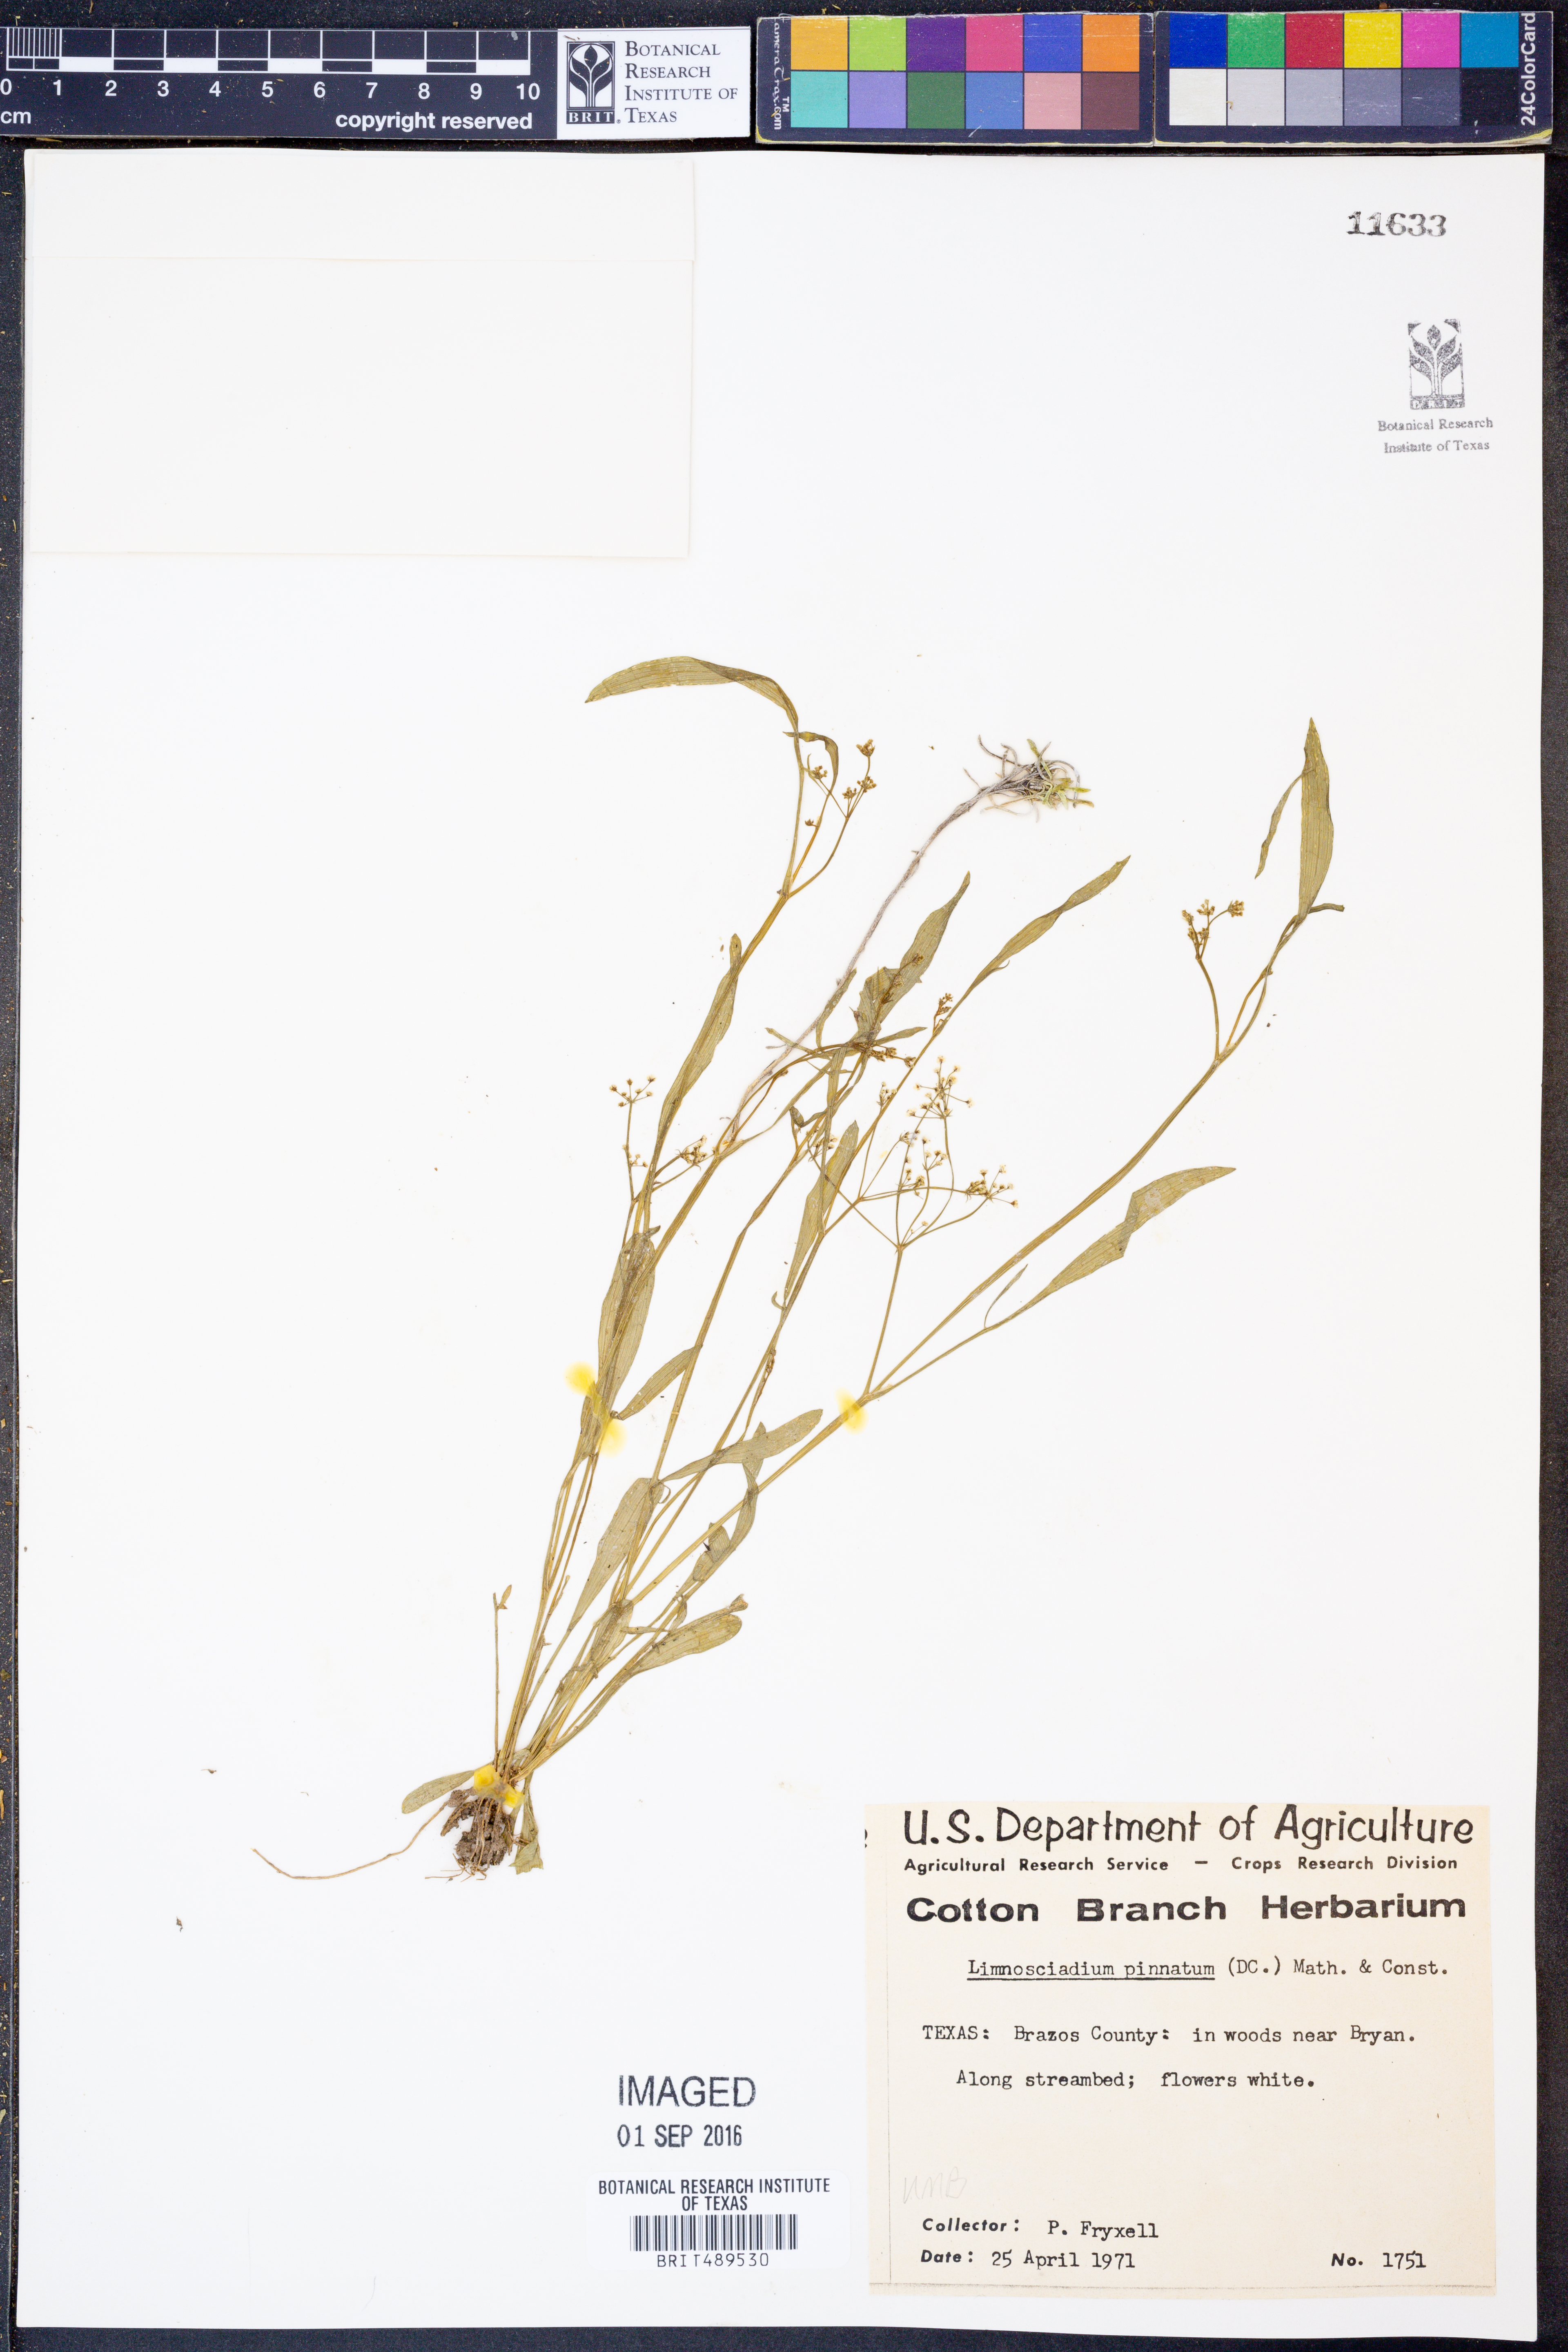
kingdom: Plantae
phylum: Tracheophyta
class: Magnoliopsida
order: Apiales
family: Apiaceae
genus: Limnosciadium
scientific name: Limnosciadium pinnatum
